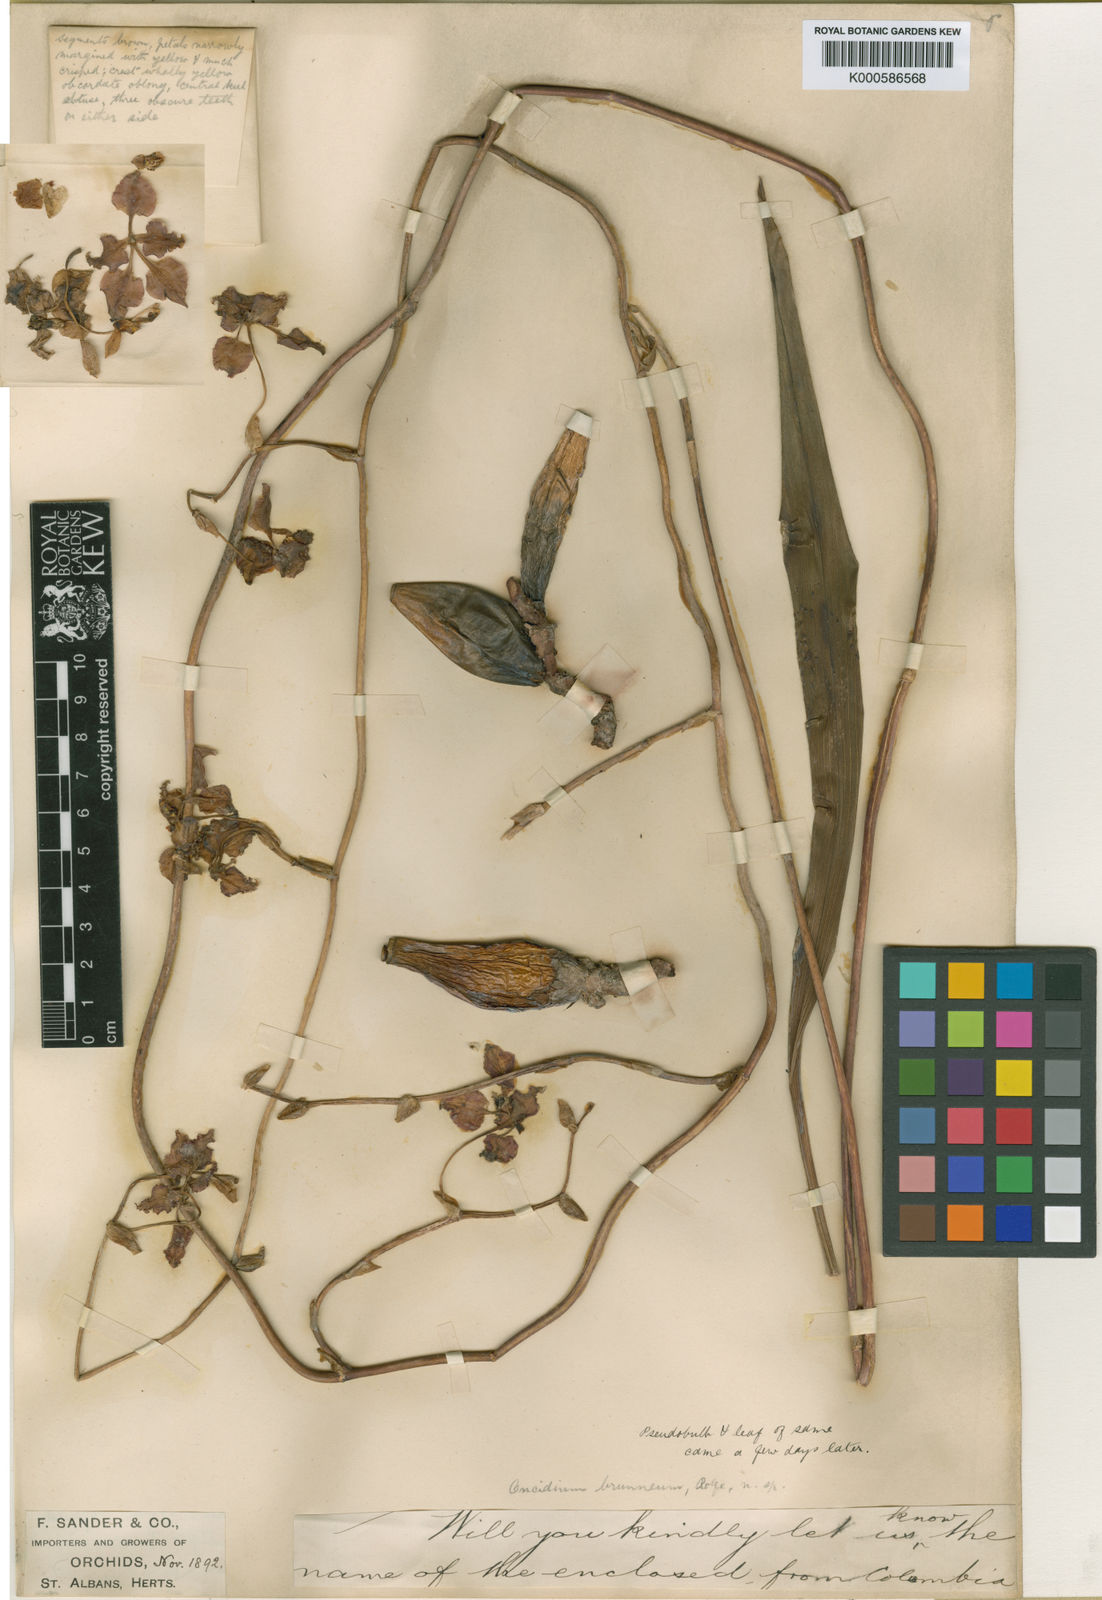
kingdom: Plantae
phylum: Tracheophyta
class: Liliopsida
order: Asparagales
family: Orchidaceae
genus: Oncidium
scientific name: Oncidium
